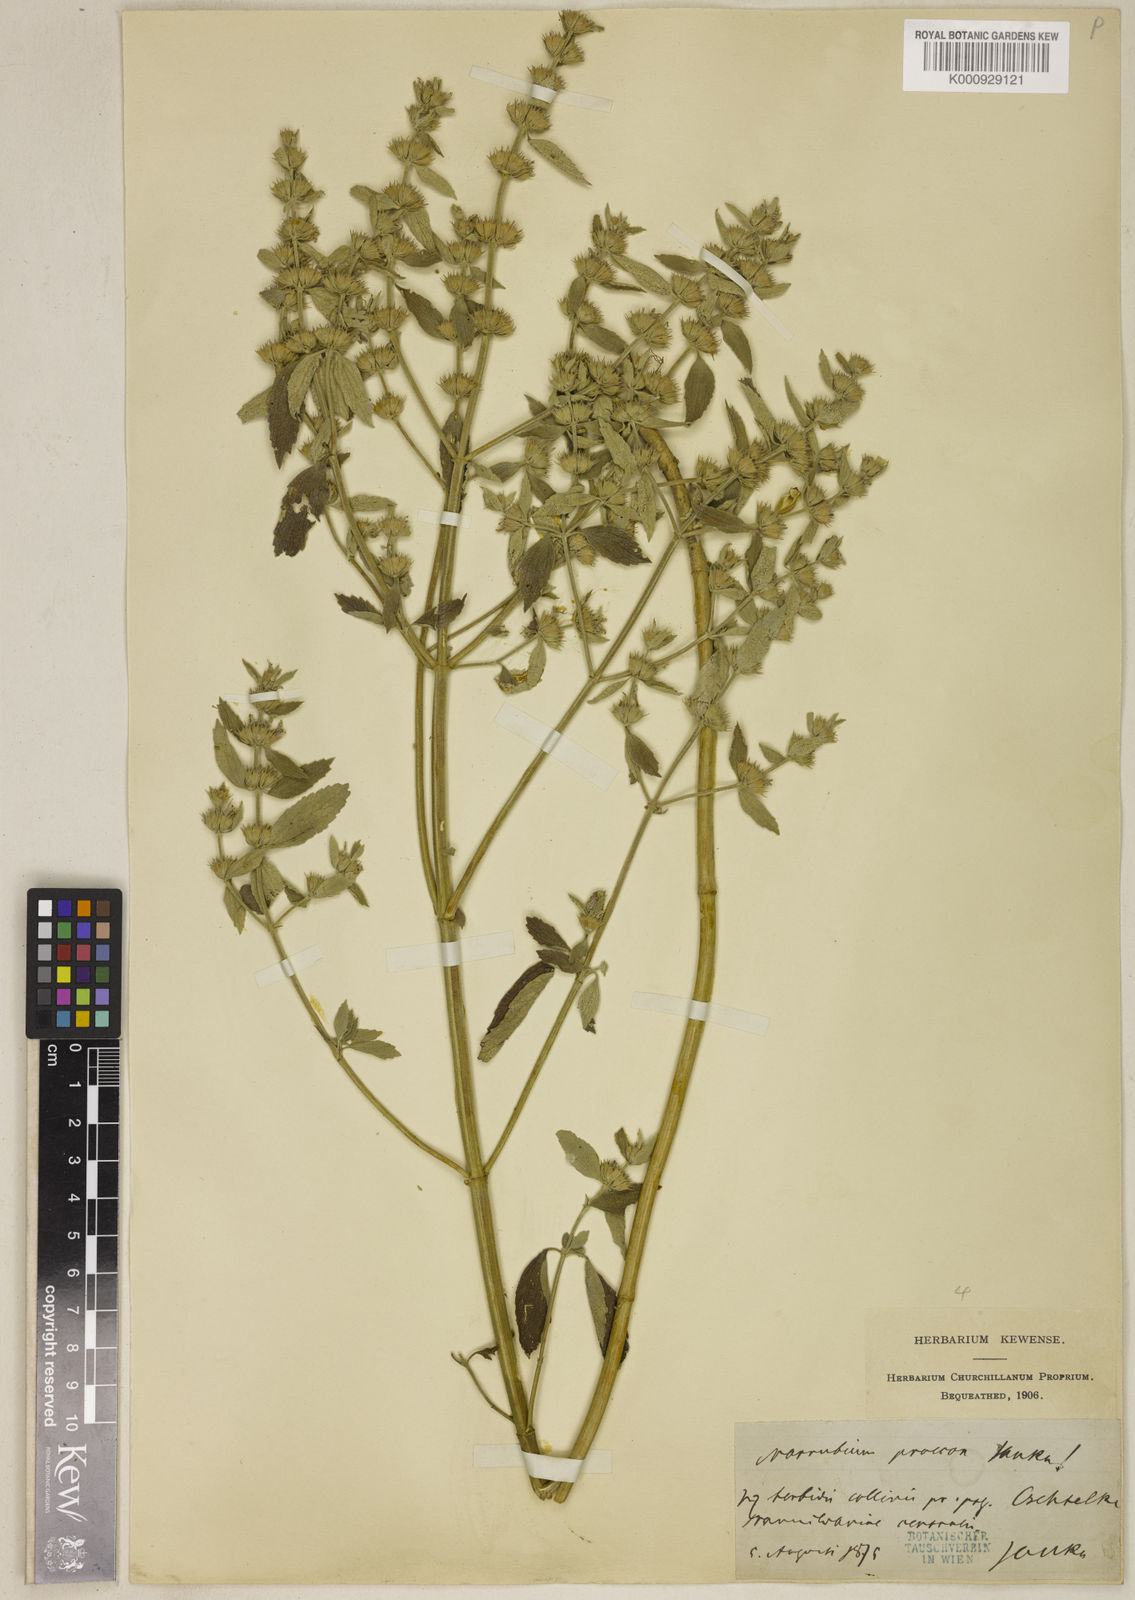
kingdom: Plantae
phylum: Tracheophyta
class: Magnoliopsida
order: Lamiales
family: Lamiaceae
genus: Marrubium
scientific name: Marrubium pestalozzae
